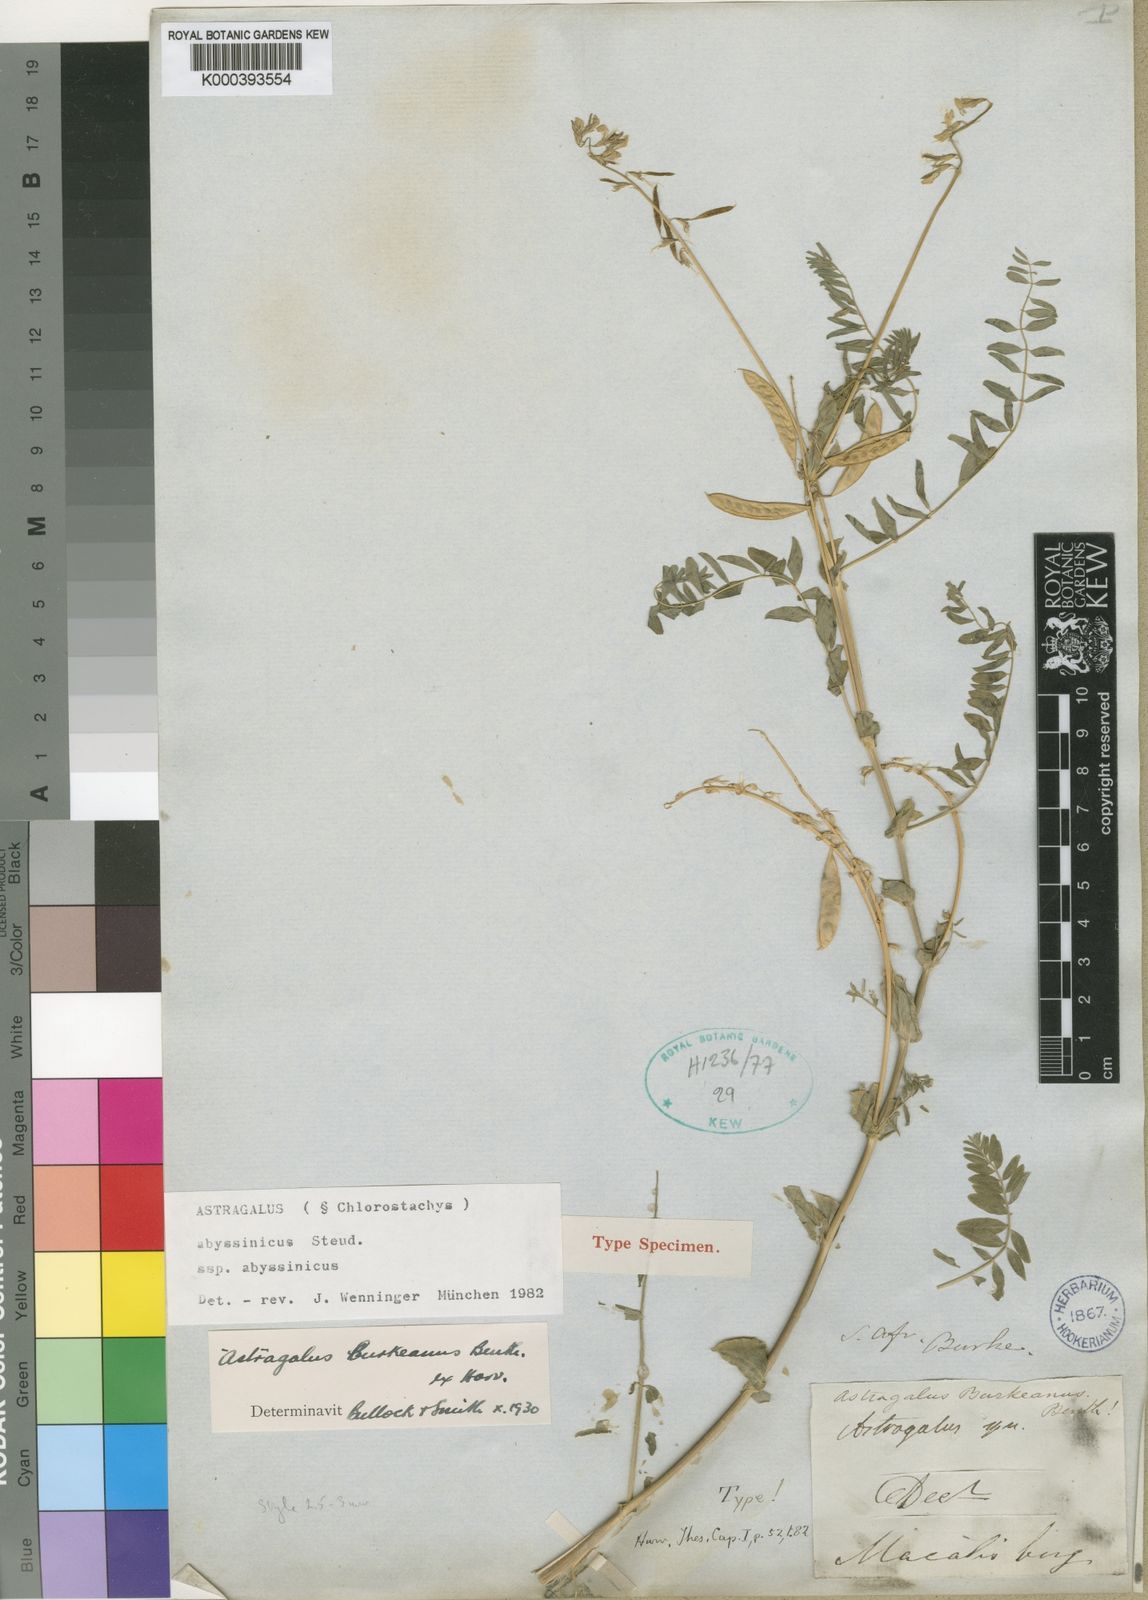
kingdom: Plantae
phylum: Tracheophyta
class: Magnoliopsida
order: Fabales
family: Fabaceae
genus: Astragalus
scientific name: Astragalus atropilosulus
